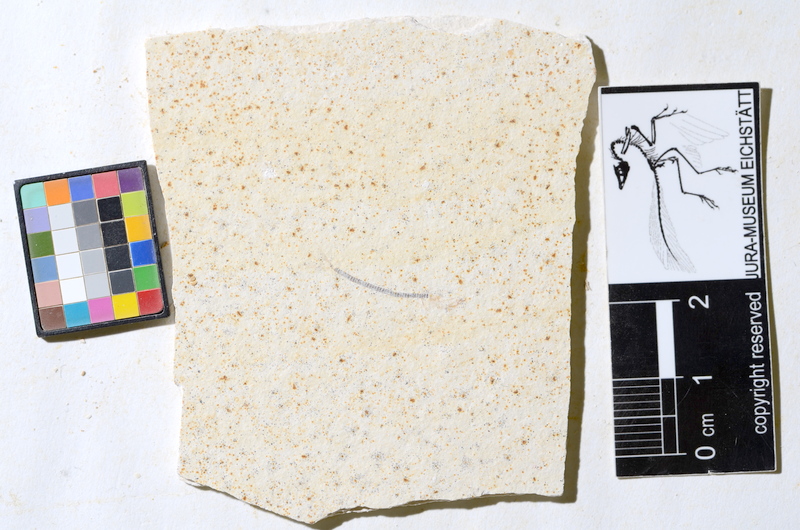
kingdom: Animalia
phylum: Chordata
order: Salmoniformes
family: Orthogonikleithridae
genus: Orthogonikleithrus
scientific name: Orthogonikleithrus hoelli
